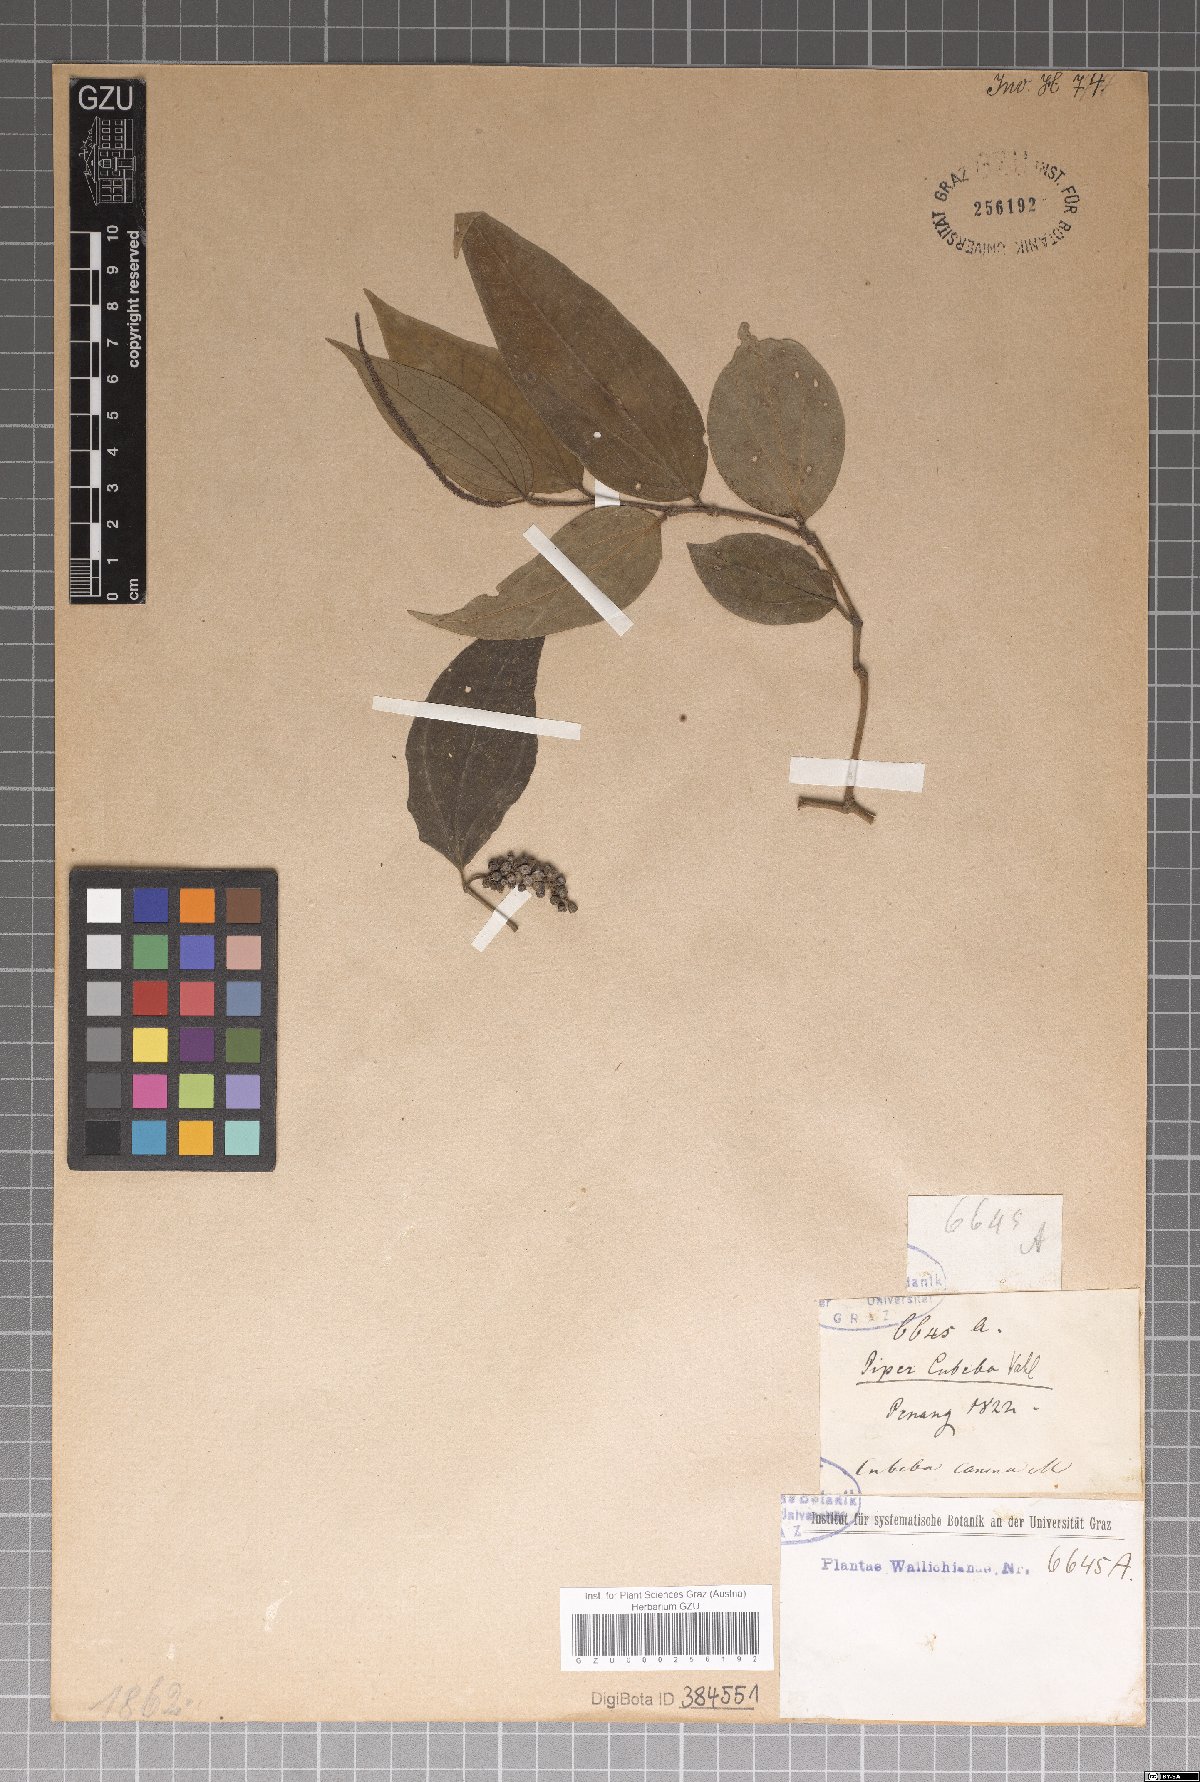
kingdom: Plantae
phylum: Tracheophyta
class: Magnoliopsida
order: Piperales
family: Piperaceae
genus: Piper
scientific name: Piper lanatum
